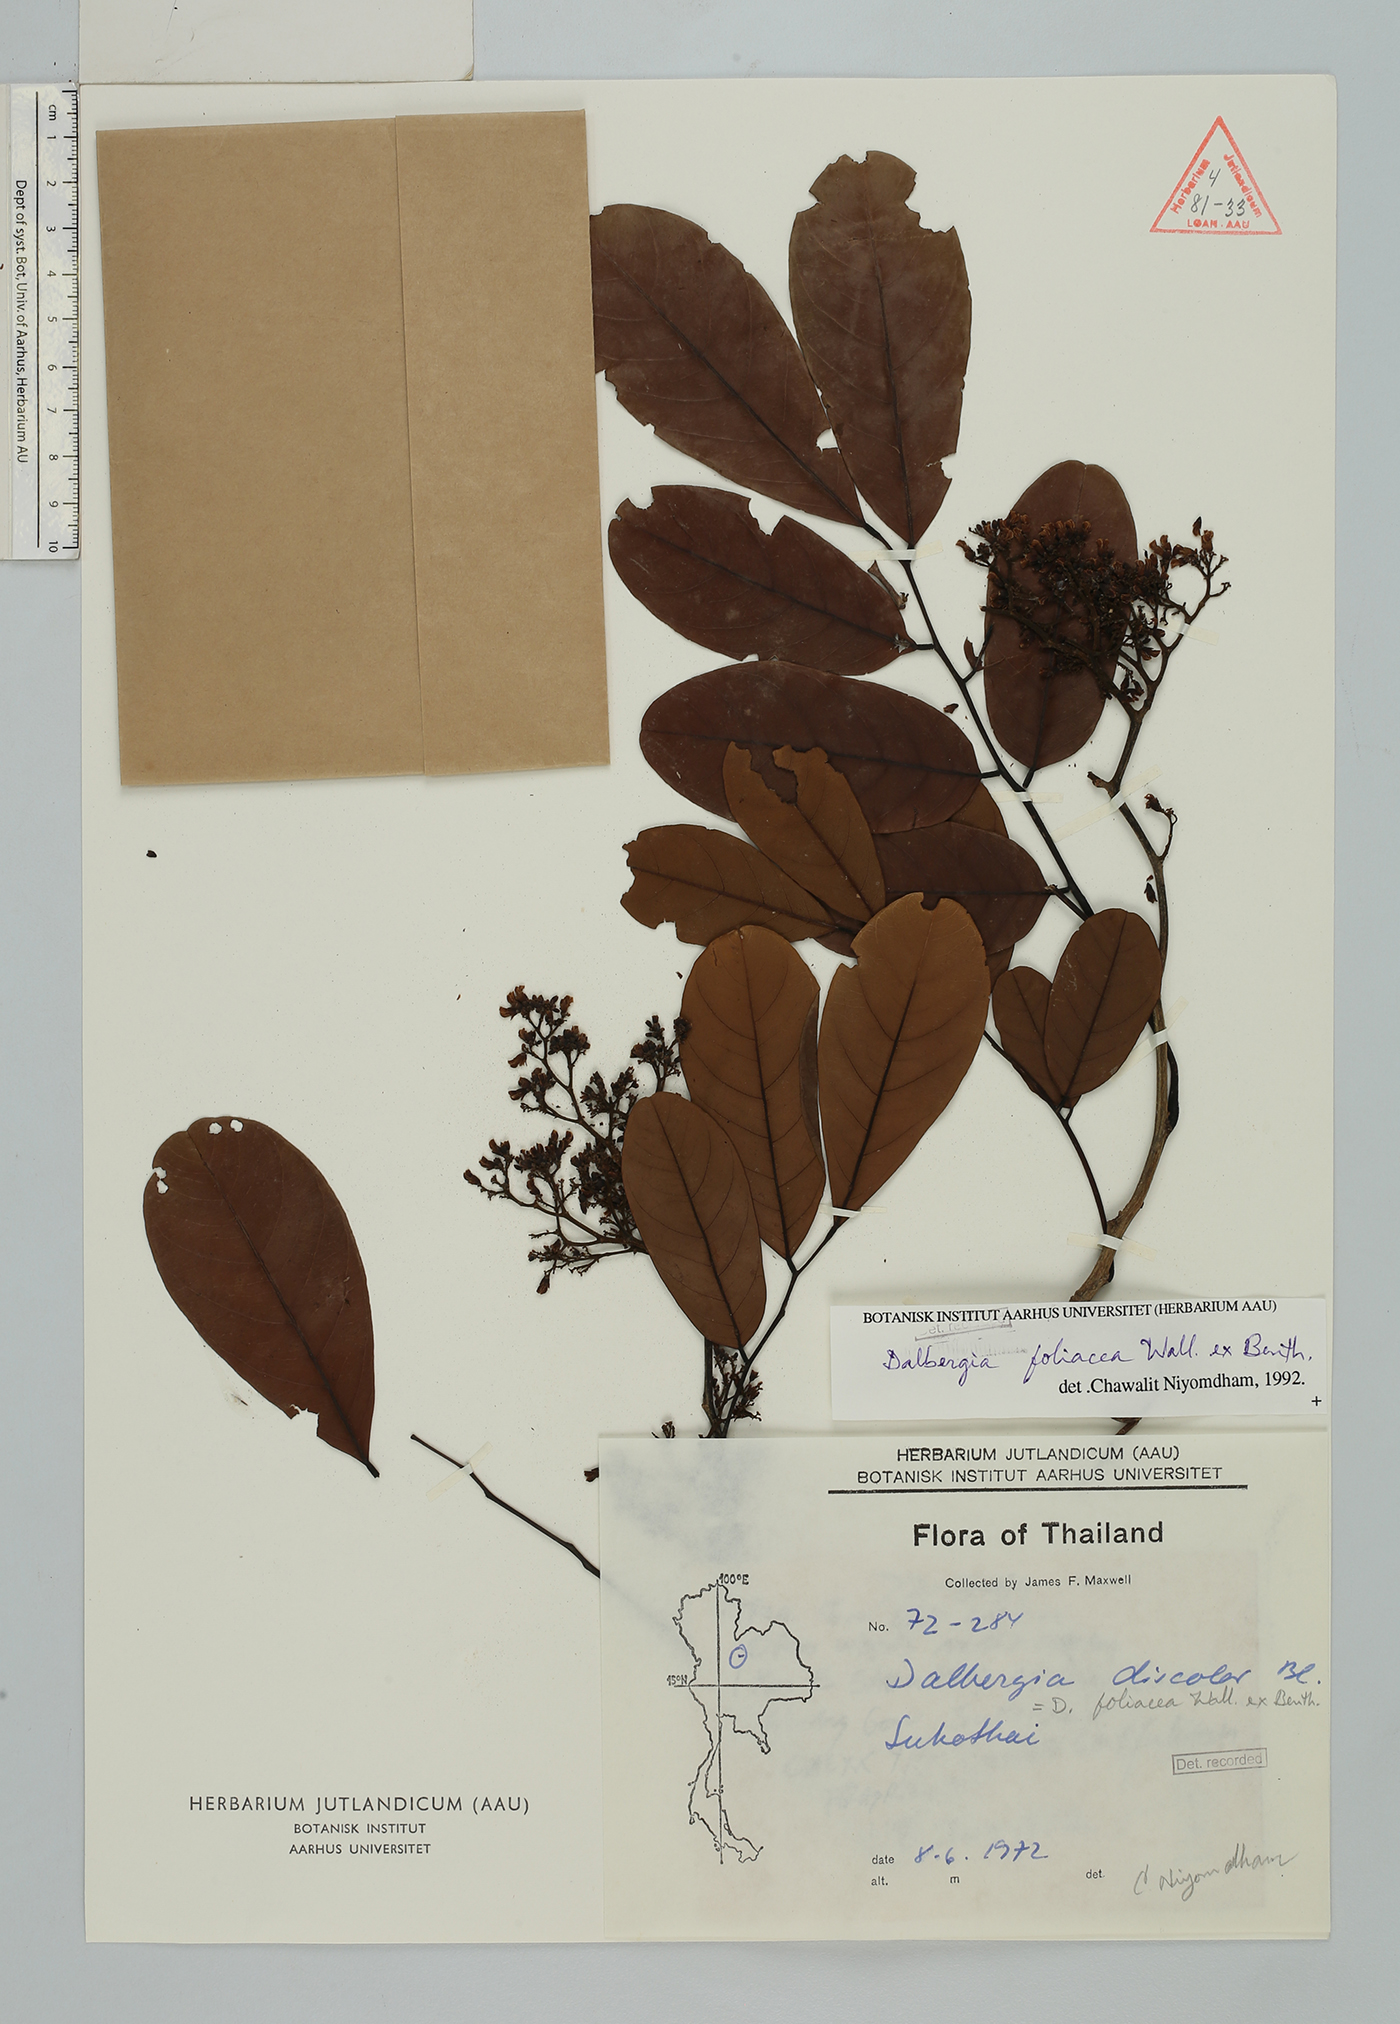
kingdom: Plantae
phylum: Tracheophyta
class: Magnoliopsida
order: Fabales
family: Fabaceae
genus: Dalbergia
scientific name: Dalbergia foliosa
